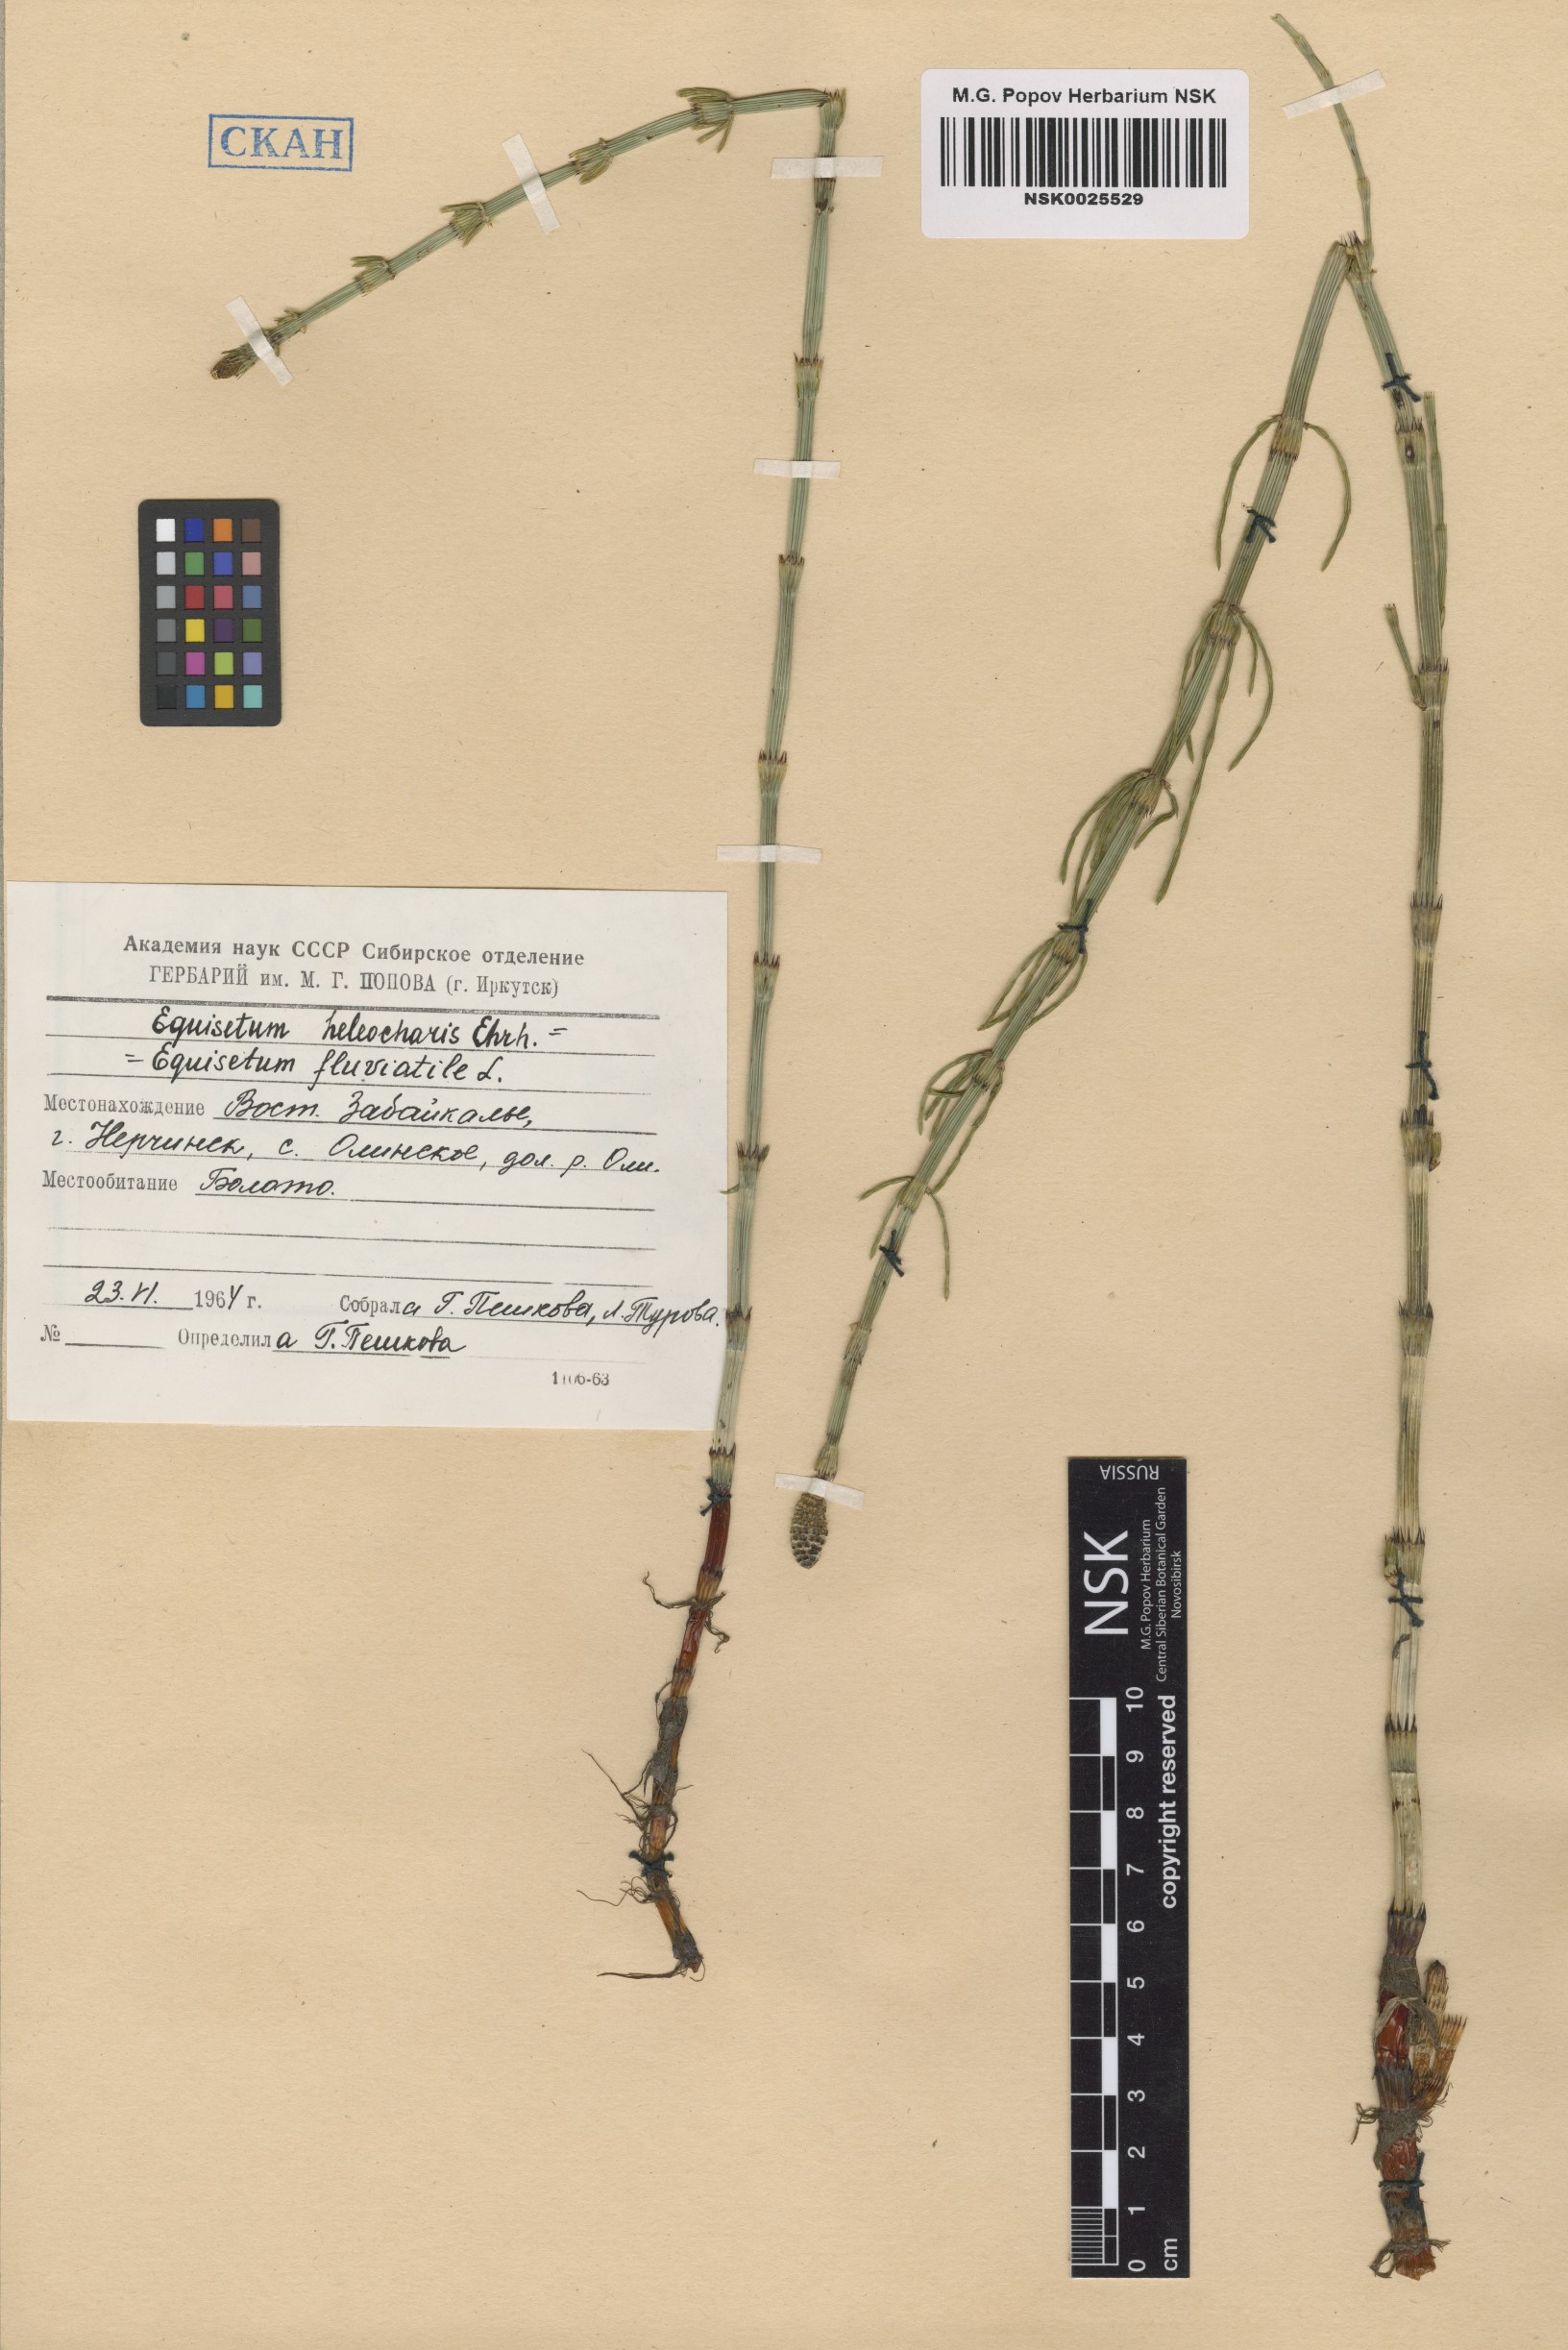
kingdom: Plantae
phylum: Tracheophyta
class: Polypodiopsida
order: Equisetales
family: Equisetaceae
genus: Equisetum
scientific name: Equisetum fluviatile
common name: Water horsetail
